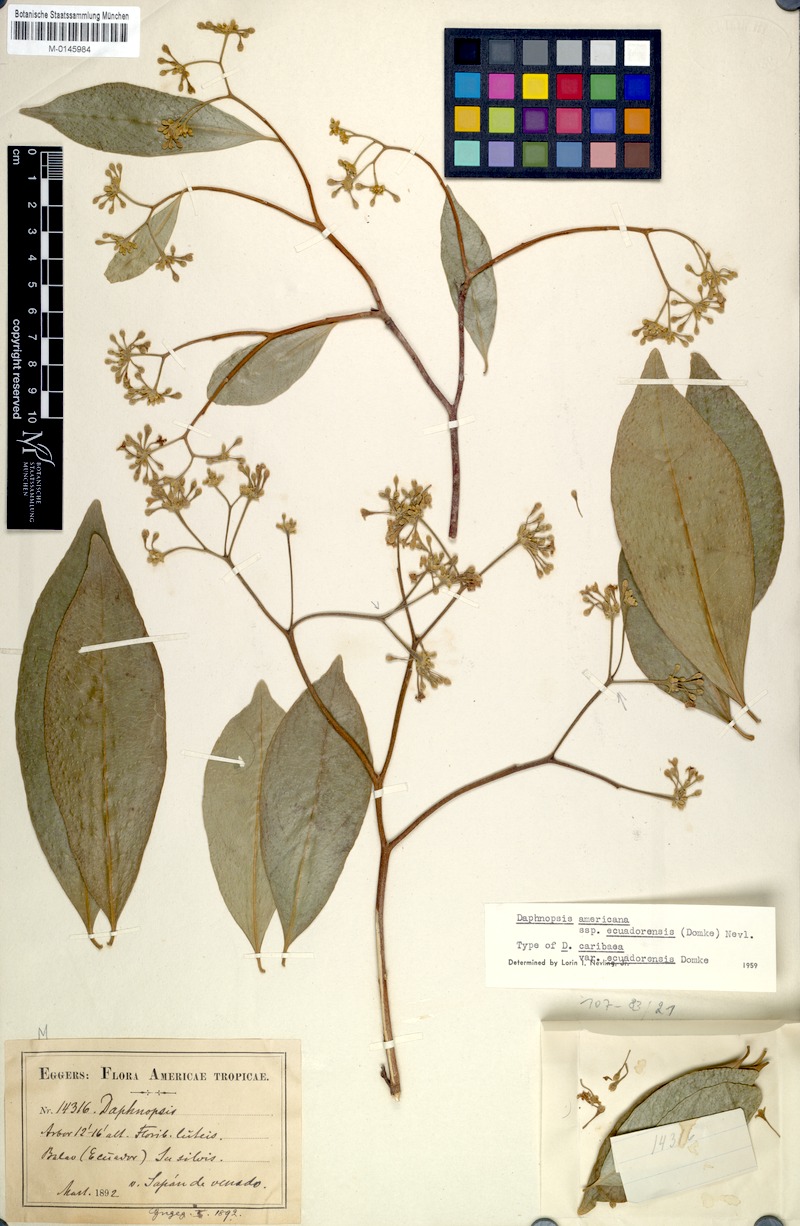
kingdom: Plantae
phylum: Tracheophyta
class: Magnoliopsida
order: Malvales
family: Thymelaeaceae
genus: Daphnopsis
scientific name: Daphnopsis americana
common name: Maho
